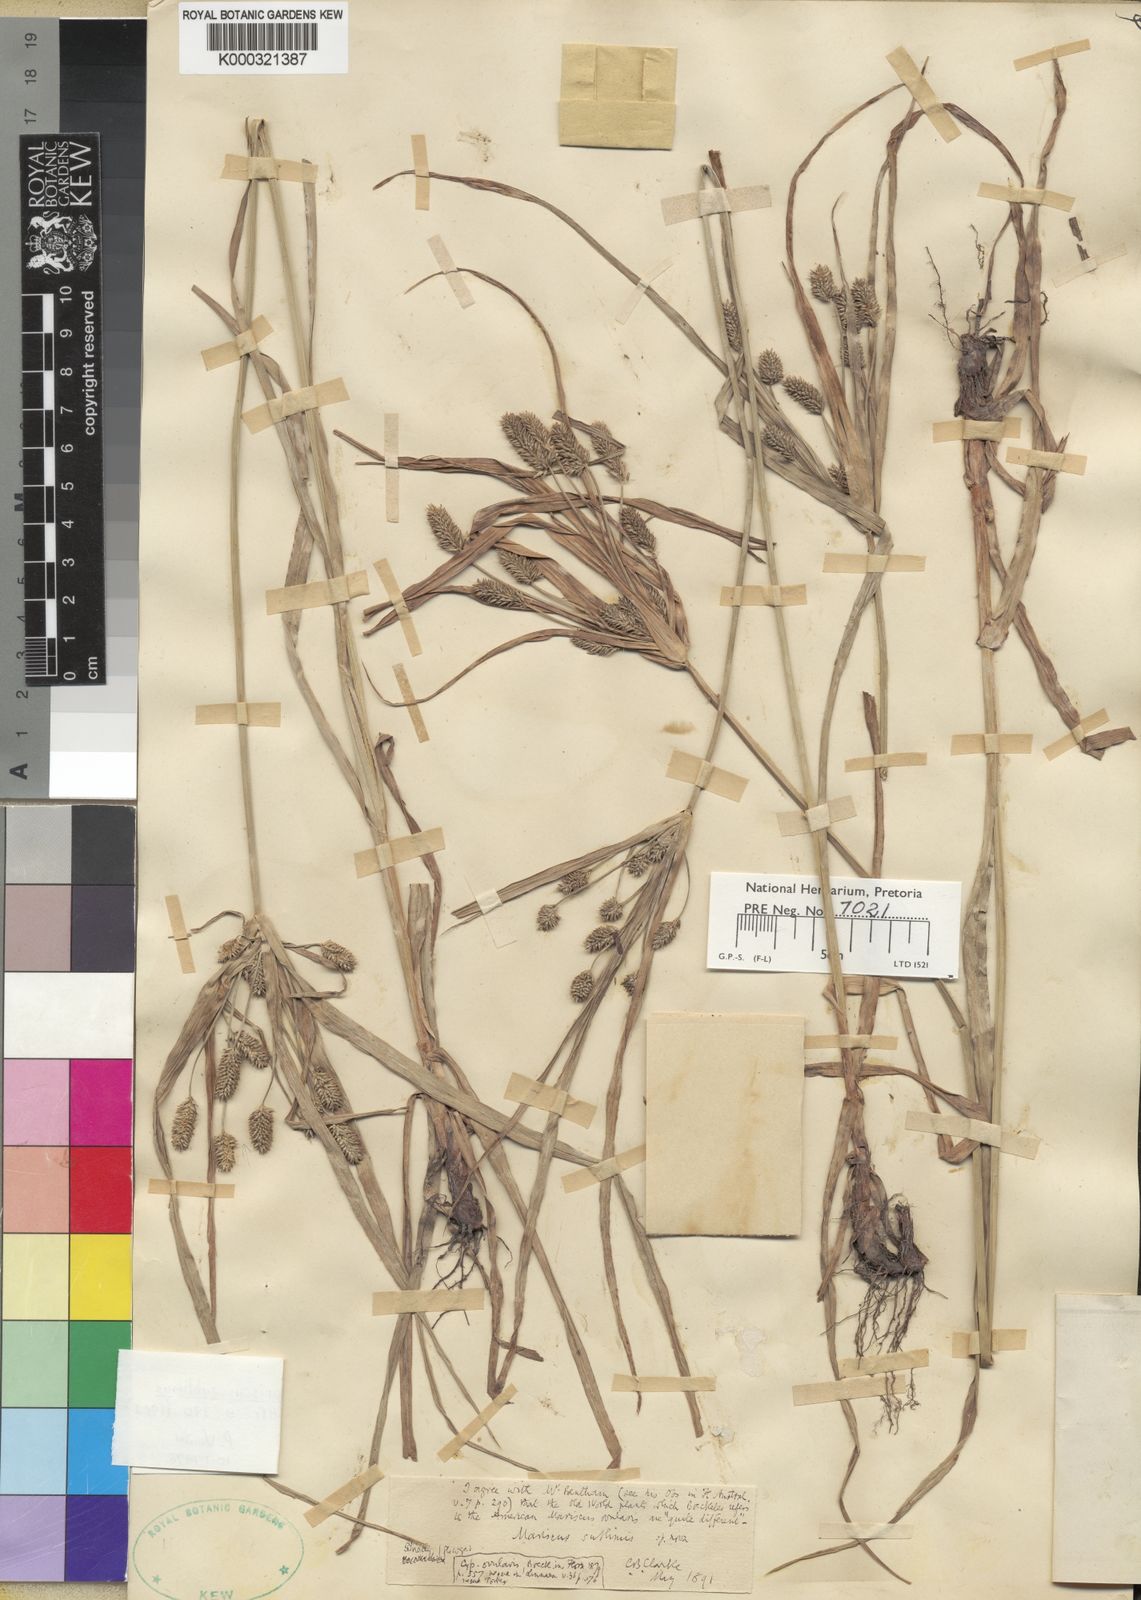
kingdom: Plantae
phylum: Tracheophyta
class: Liliopsida
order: Poales
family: Cyperaceae
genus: Cyperus
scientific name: Cyperus cyperoides
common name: Pacific island flat sedge
